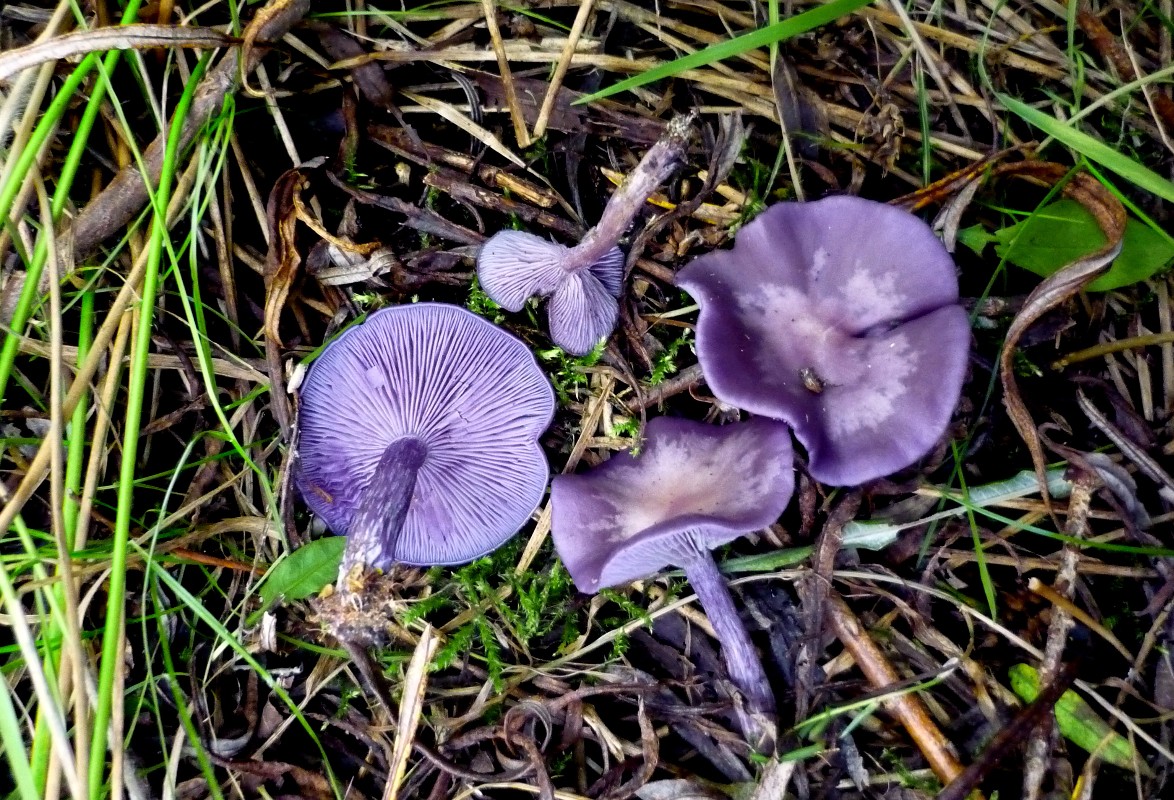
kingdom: Fungi
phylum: Basidiomycota
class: Agaricomycetes
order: Agaricales
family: Tricholomataceae
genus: Lepista
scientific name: Lepista lilacea
